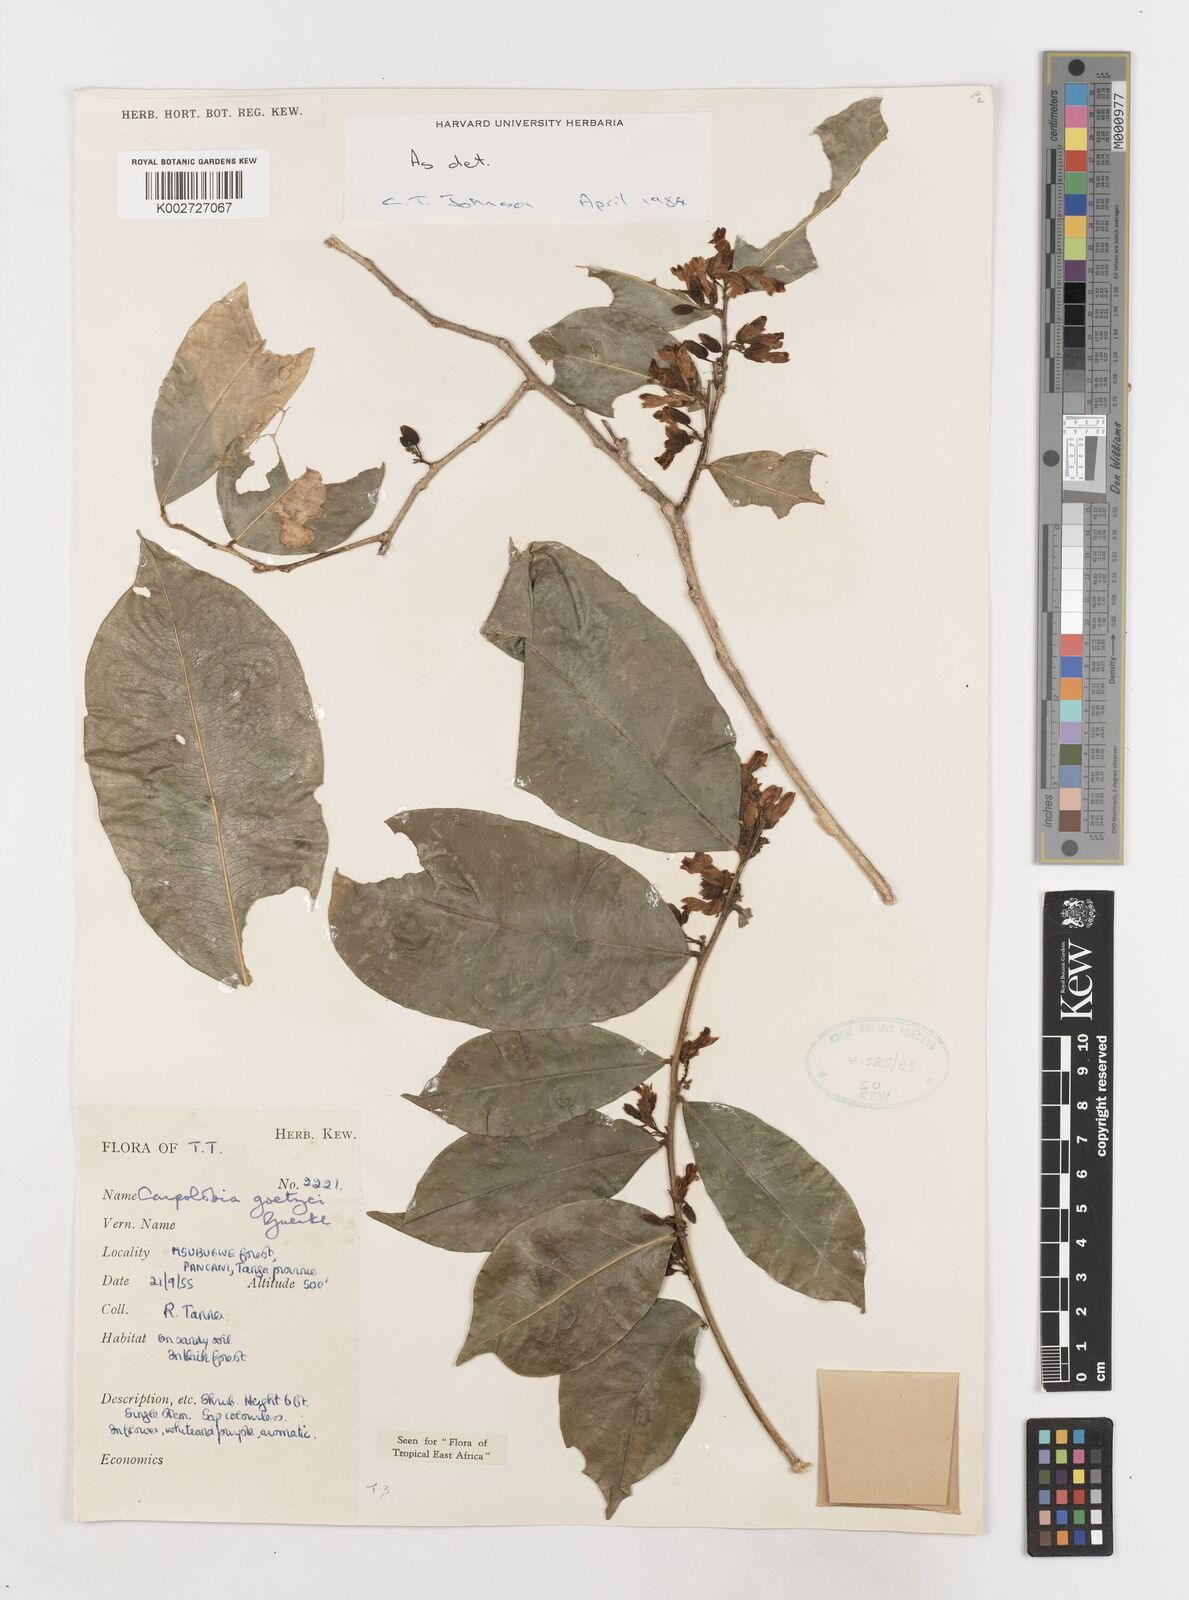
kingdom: Plantae
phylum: Tracheophyta
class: Magnoliopsida
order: Fabales
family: Polygalaceae
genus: Carpolobia
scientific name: Carpolobia goetzei
